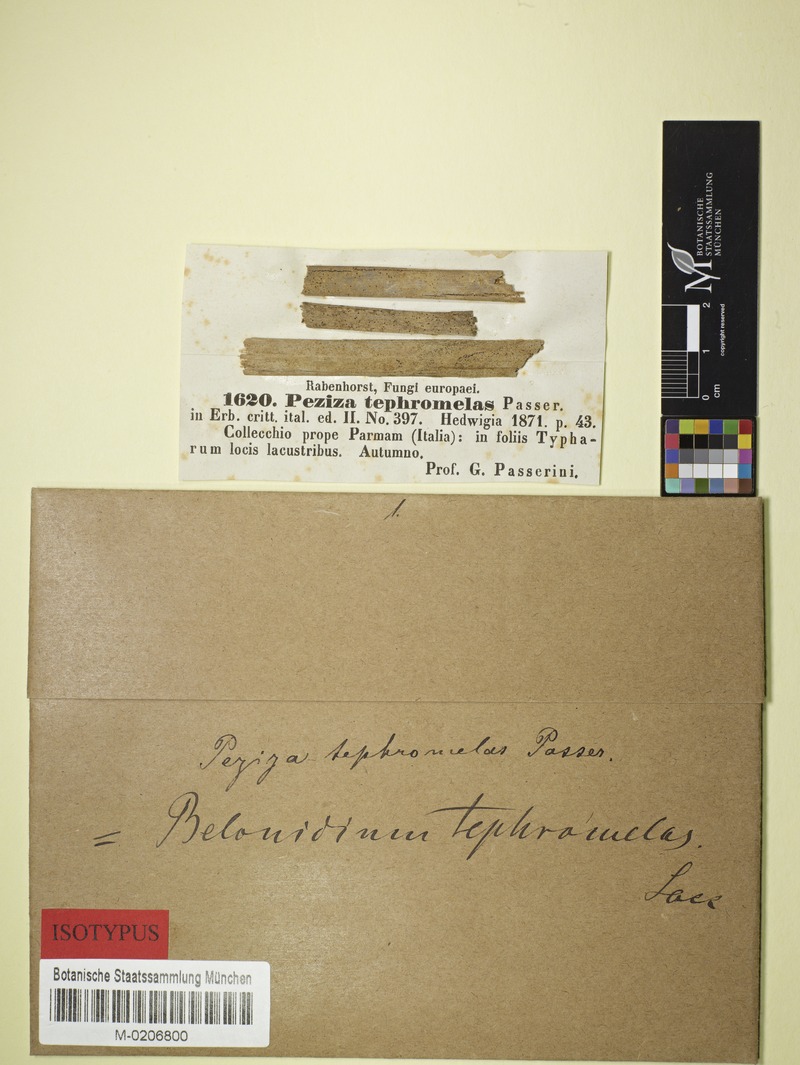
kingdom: Fungi
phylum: Ascomycota
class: Leotiomycetes
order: Helotiales
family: Mollisiaceae
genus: Niptera
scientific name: Niptera tephromelas
